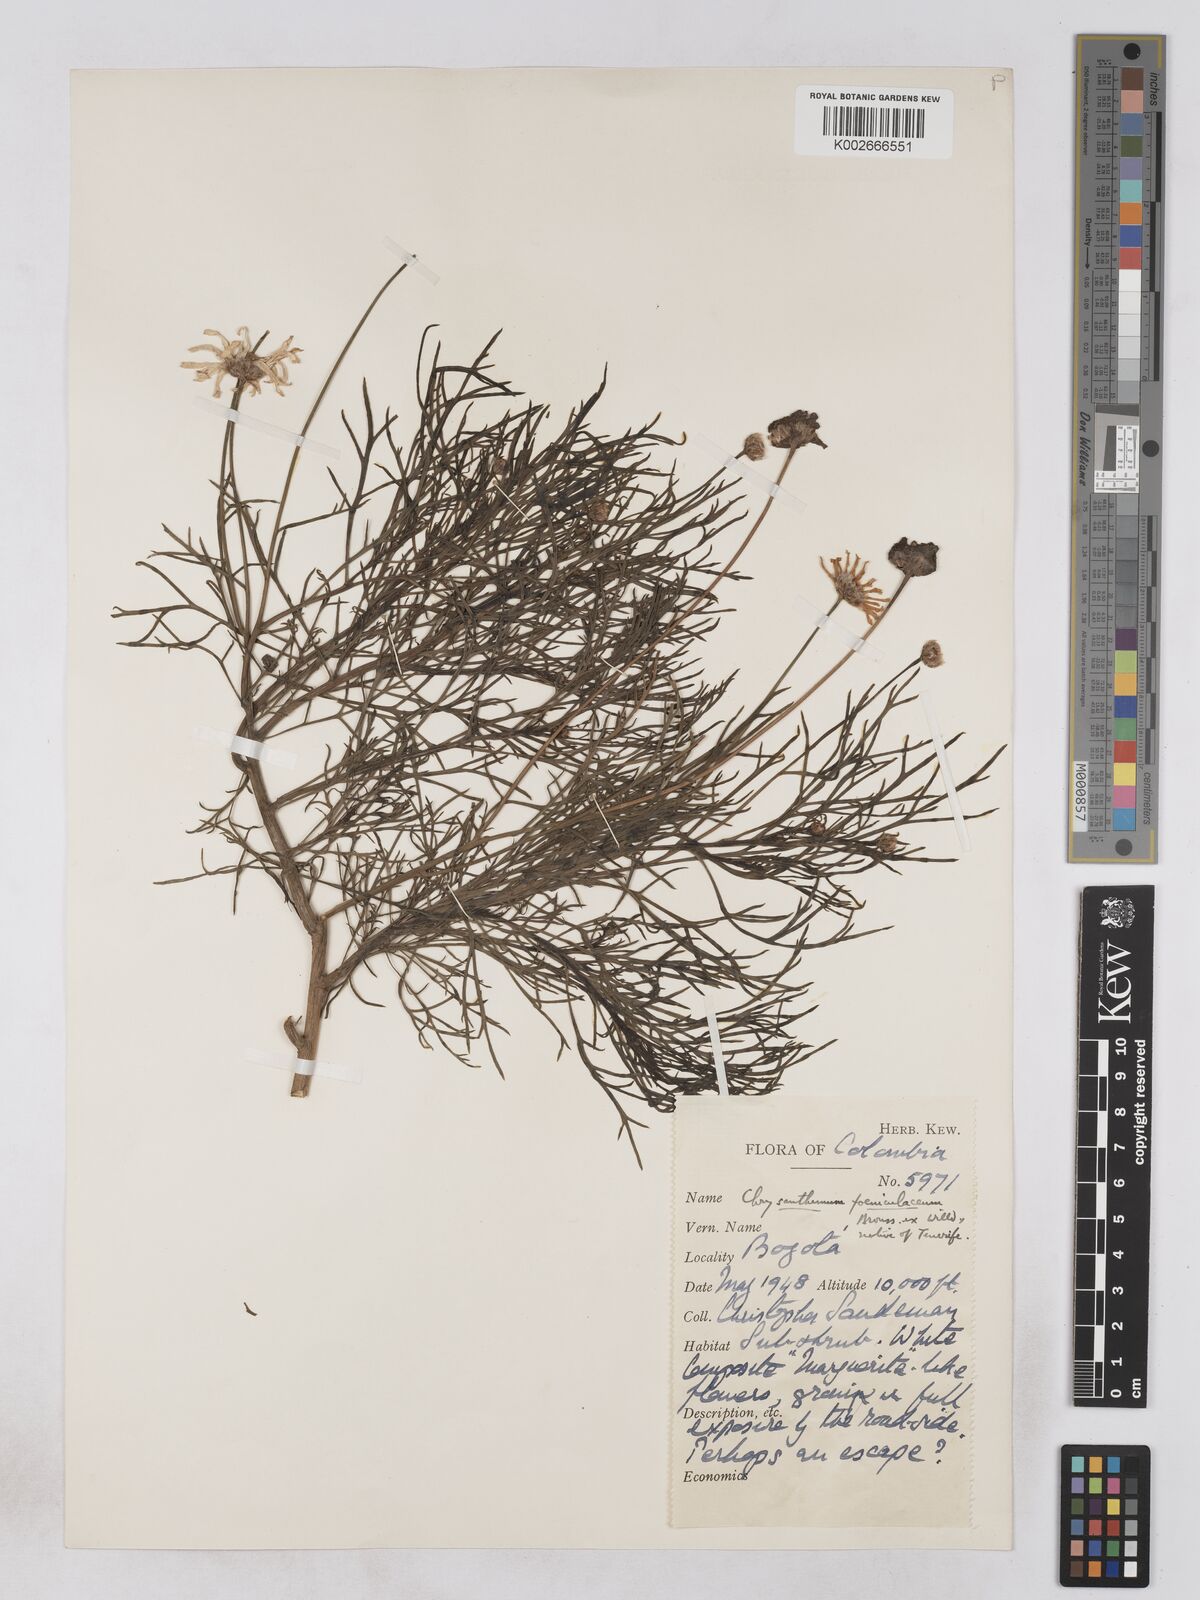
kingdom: Plantae
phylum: Tracheophyta
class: Magnoliopsida
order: Asterales
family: Asteraceae
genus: Argyranthemum
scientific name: Argyranthemum foeniculaceum
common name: Canary island marguerite
